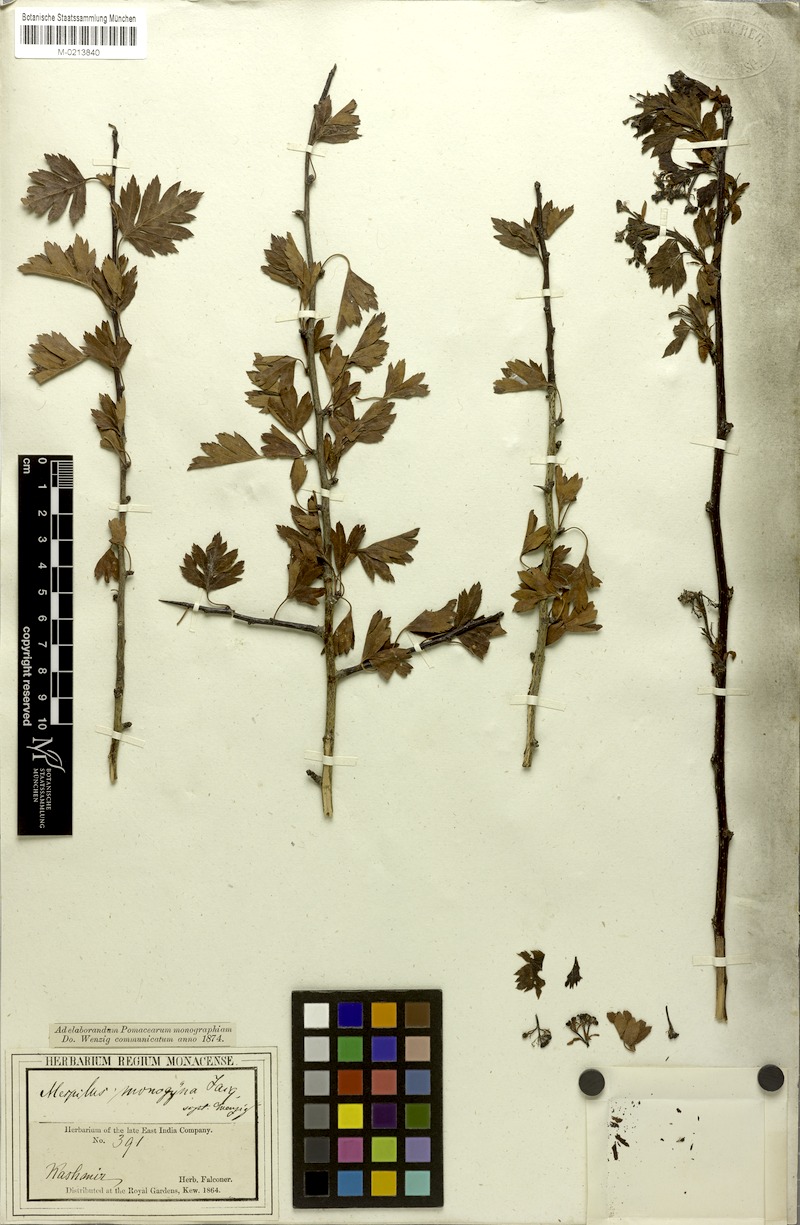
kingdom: Plantae
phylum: Tracheophyta
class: Magnoliopsida
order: Rosales
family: Rosaceae
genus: Crataegus
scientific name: Crataegus songarica
